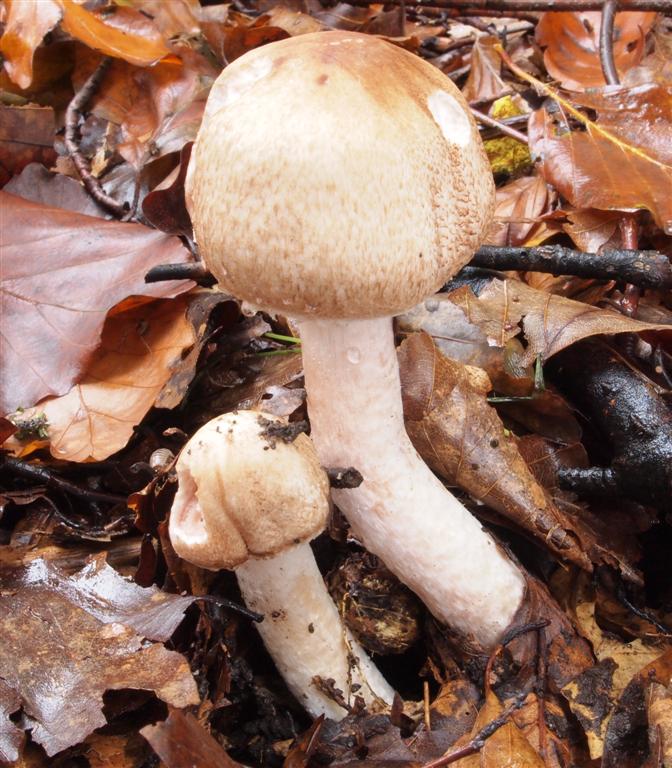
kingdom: Fungi
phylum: Basidiomycota
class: Agaricomycetes
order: Agaricales
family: Agaricaceae
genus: Agaricus
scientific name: Agaricus langei
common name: stor blod-champignon
